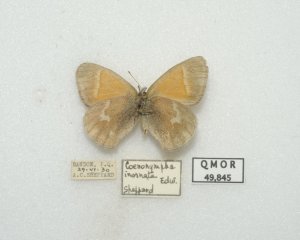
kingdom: Animalia
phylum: Arthropoda
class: Insecta
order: Lepidoptera
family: Nymphalidae
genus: Coenonympha
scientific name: Coenonympha tullia
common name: Large Heath
